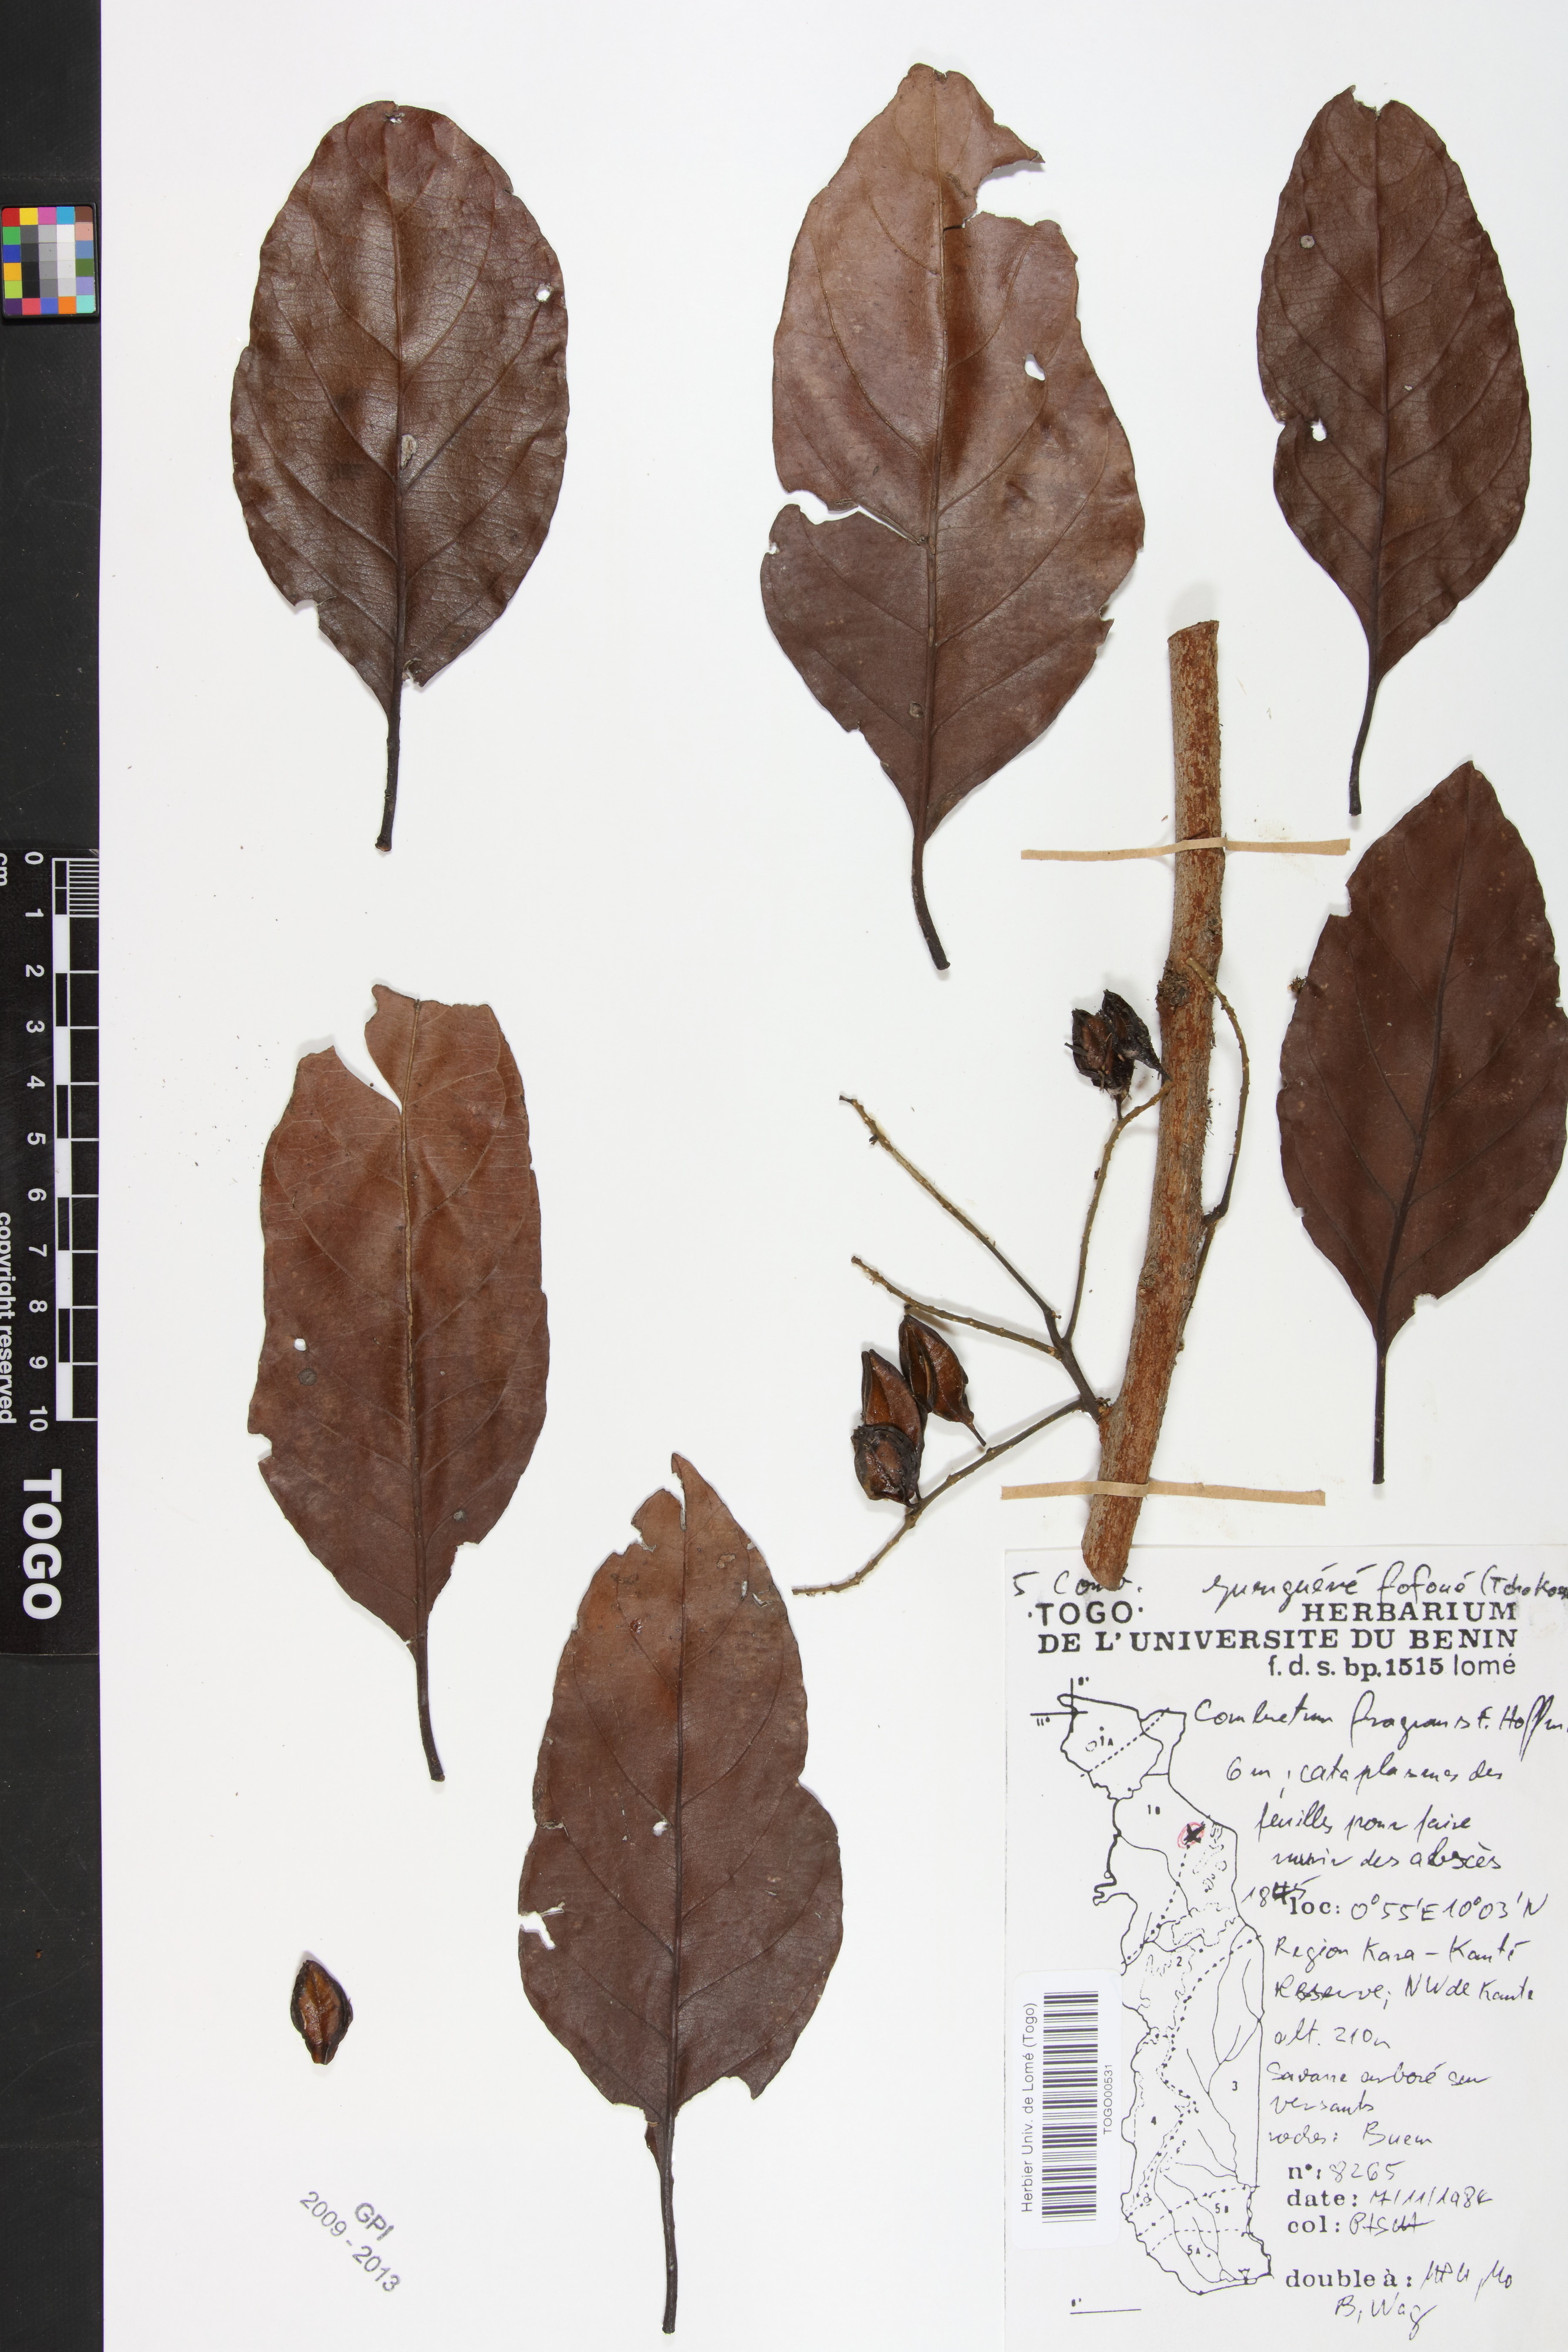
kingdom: Plantae
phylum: Tracheophyta
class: Magnoliopsida
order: Myrtales
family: Combretaceae
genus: Combretum
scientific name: Combretum adenogonium
